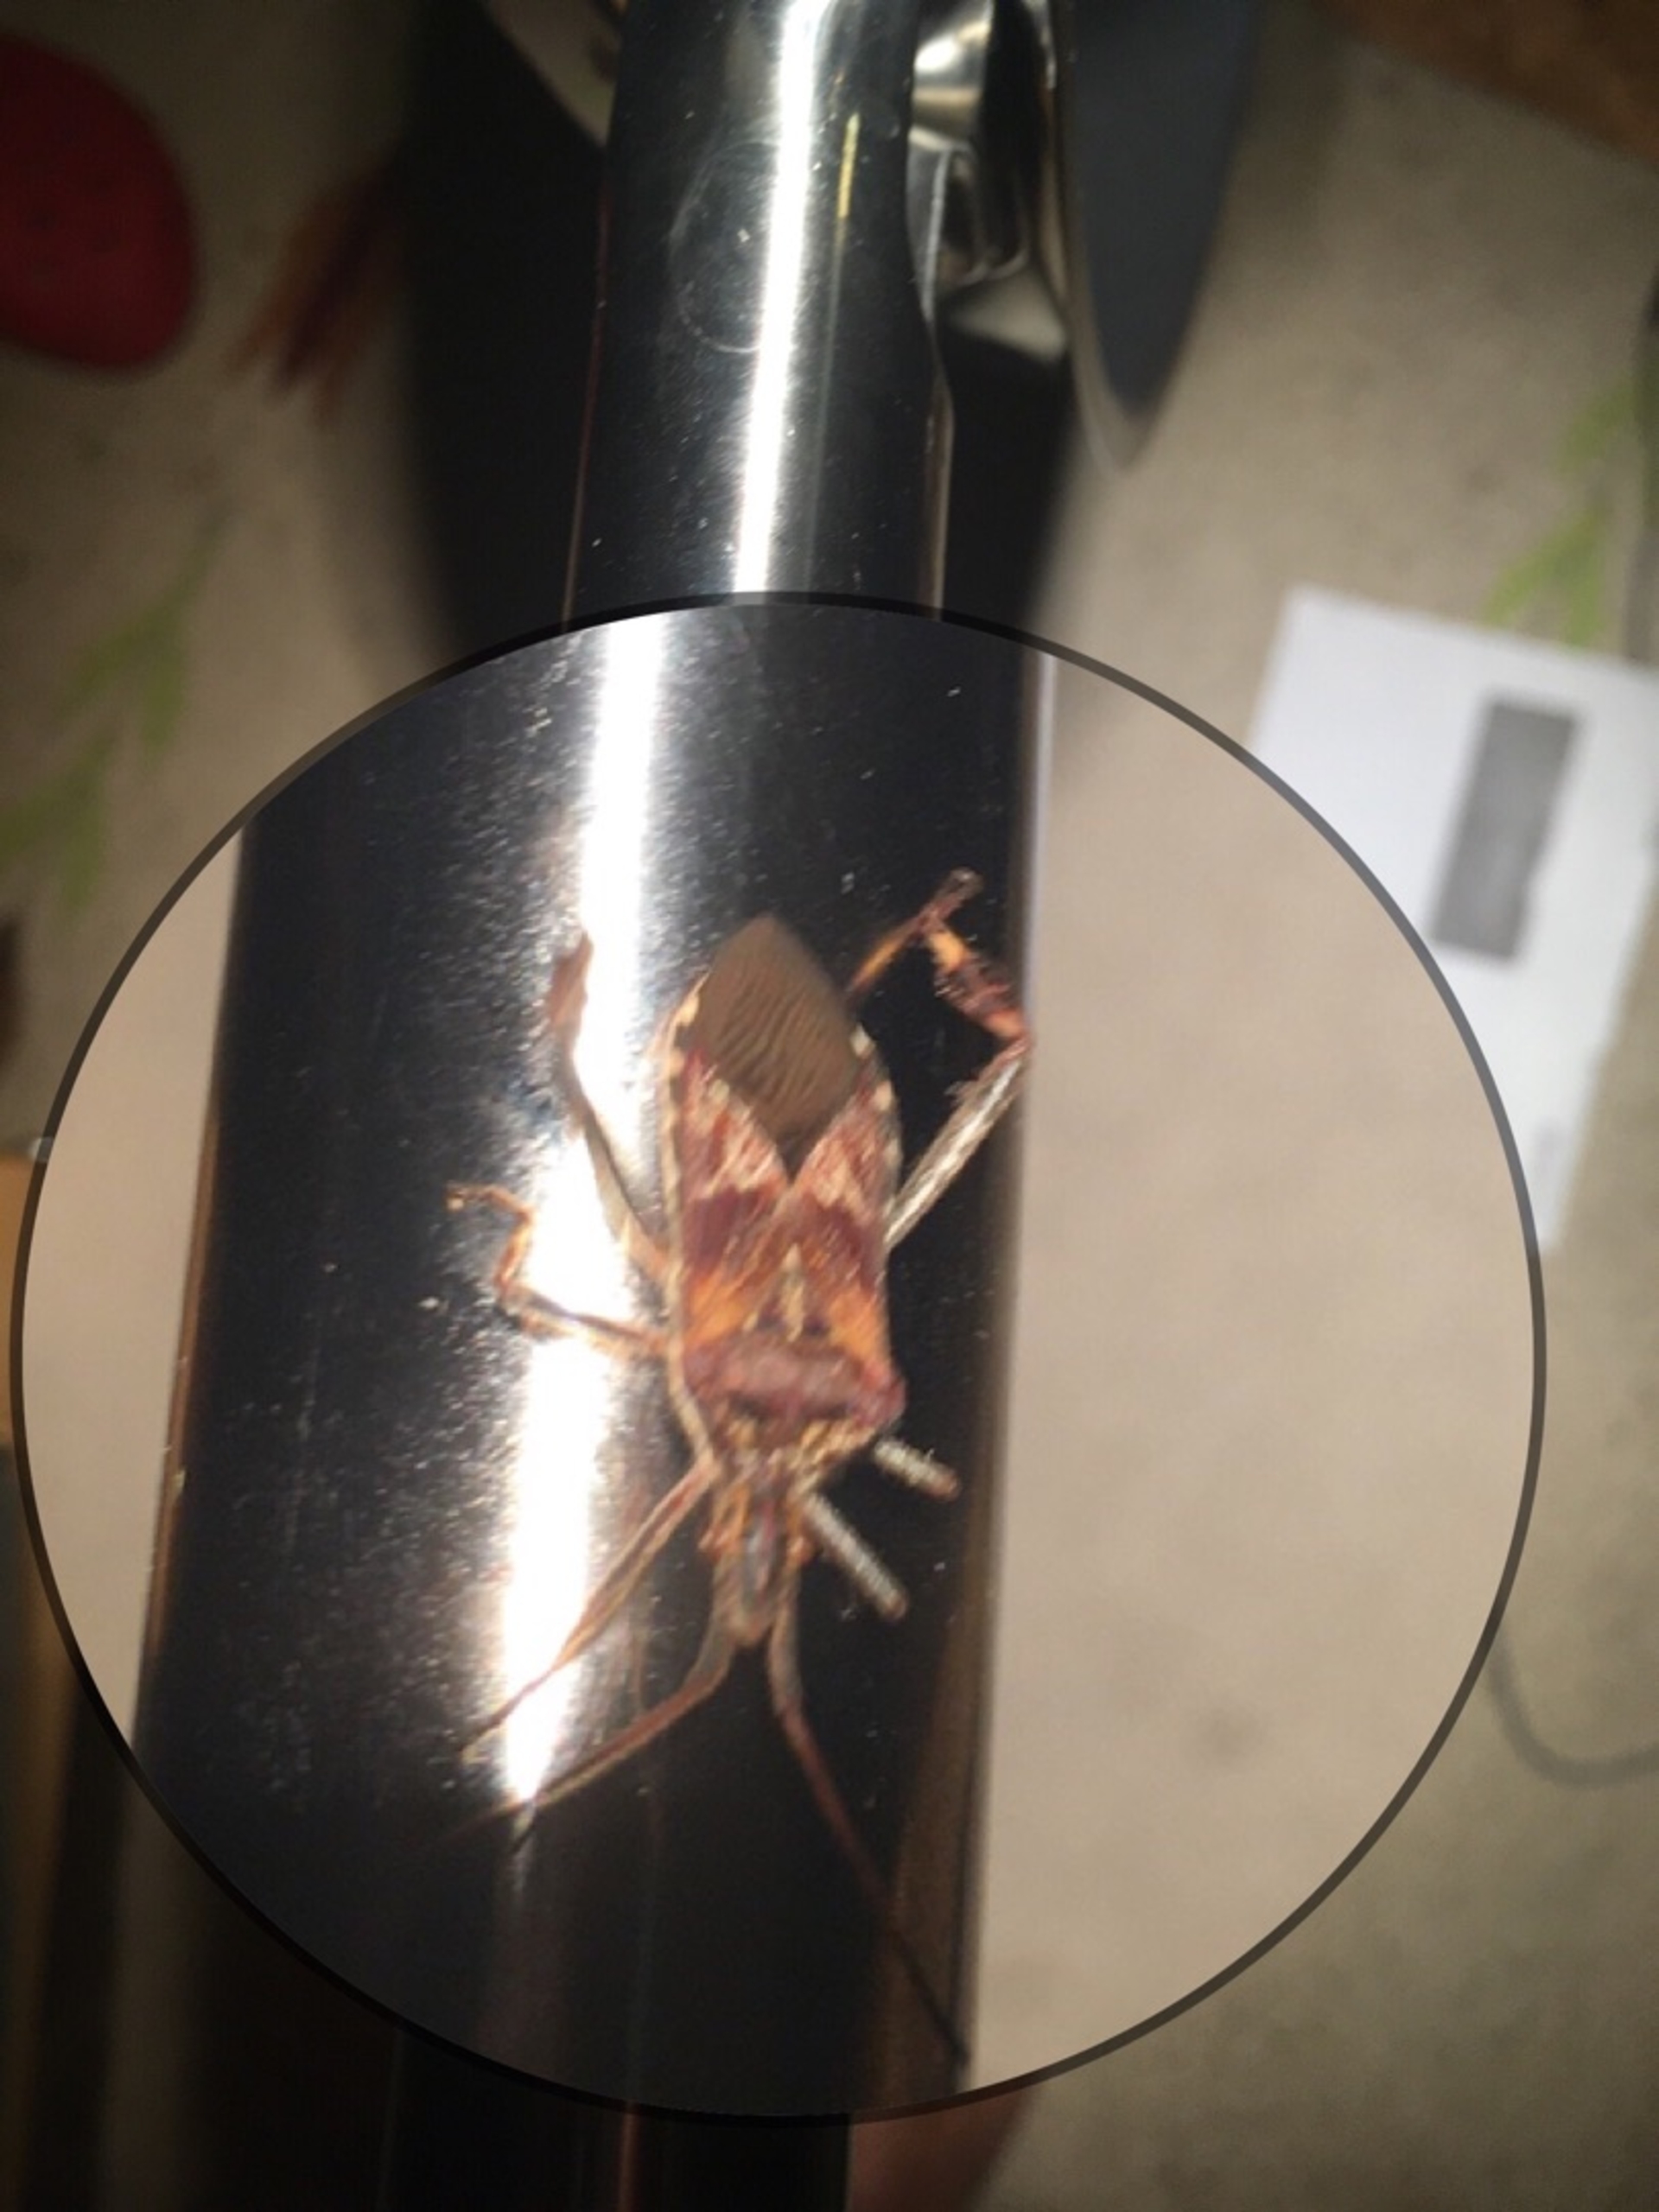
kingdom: Animalia
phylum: Arthropoda
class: Insecta
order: Hemiptera
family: Coreidae
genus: Leptoglossus
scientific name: Leptoglossus occidentalis
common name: Amerikansk fyrretæge
